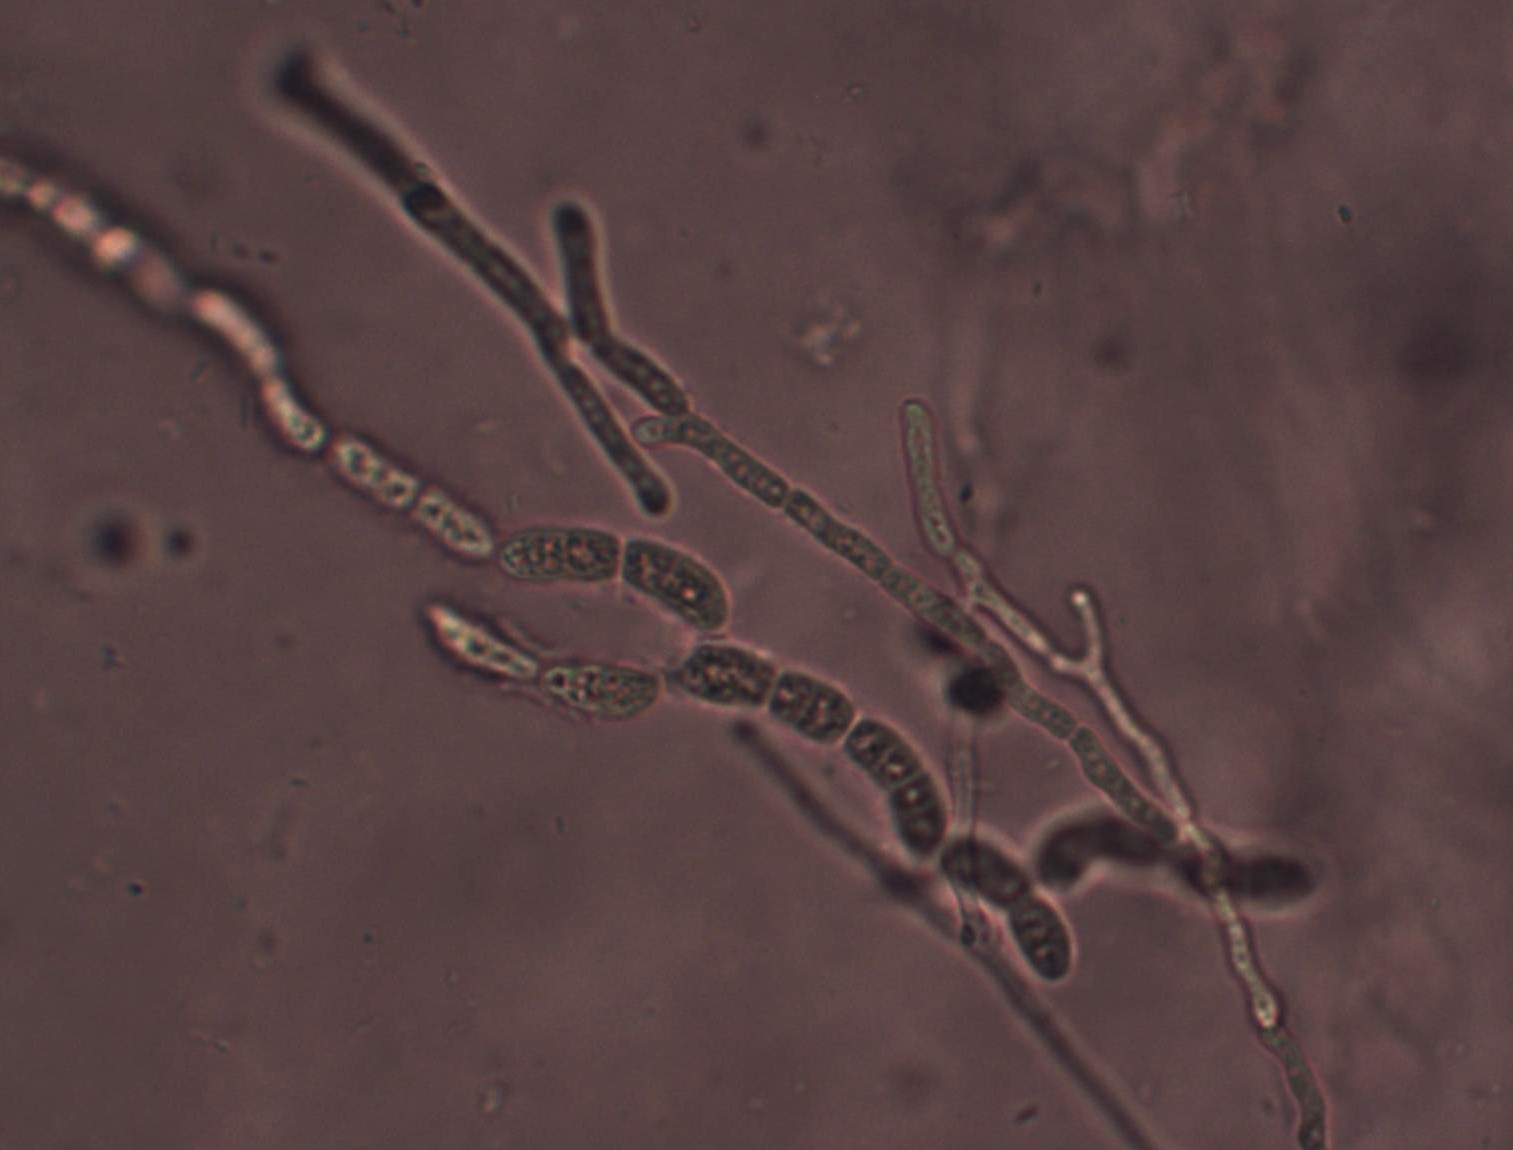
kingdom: Fungi
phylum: Basidiomycota
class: Dacrymycetes
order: Dacrymycetales
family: Dacrymycetaceae
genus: Dacrymyces
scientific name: Dacrymyces stillatus
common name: almindelig tåresvamp
